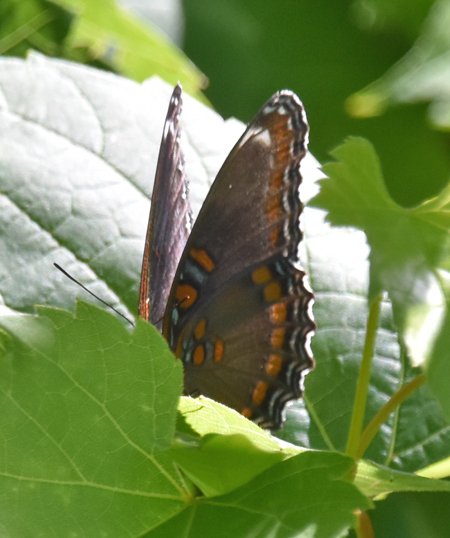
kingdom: Animalia
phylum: Arthropoda
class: Insecta
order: Lepidoptera
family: Nymphalidae
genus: Limenitis
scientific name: Limenitis astyanax
